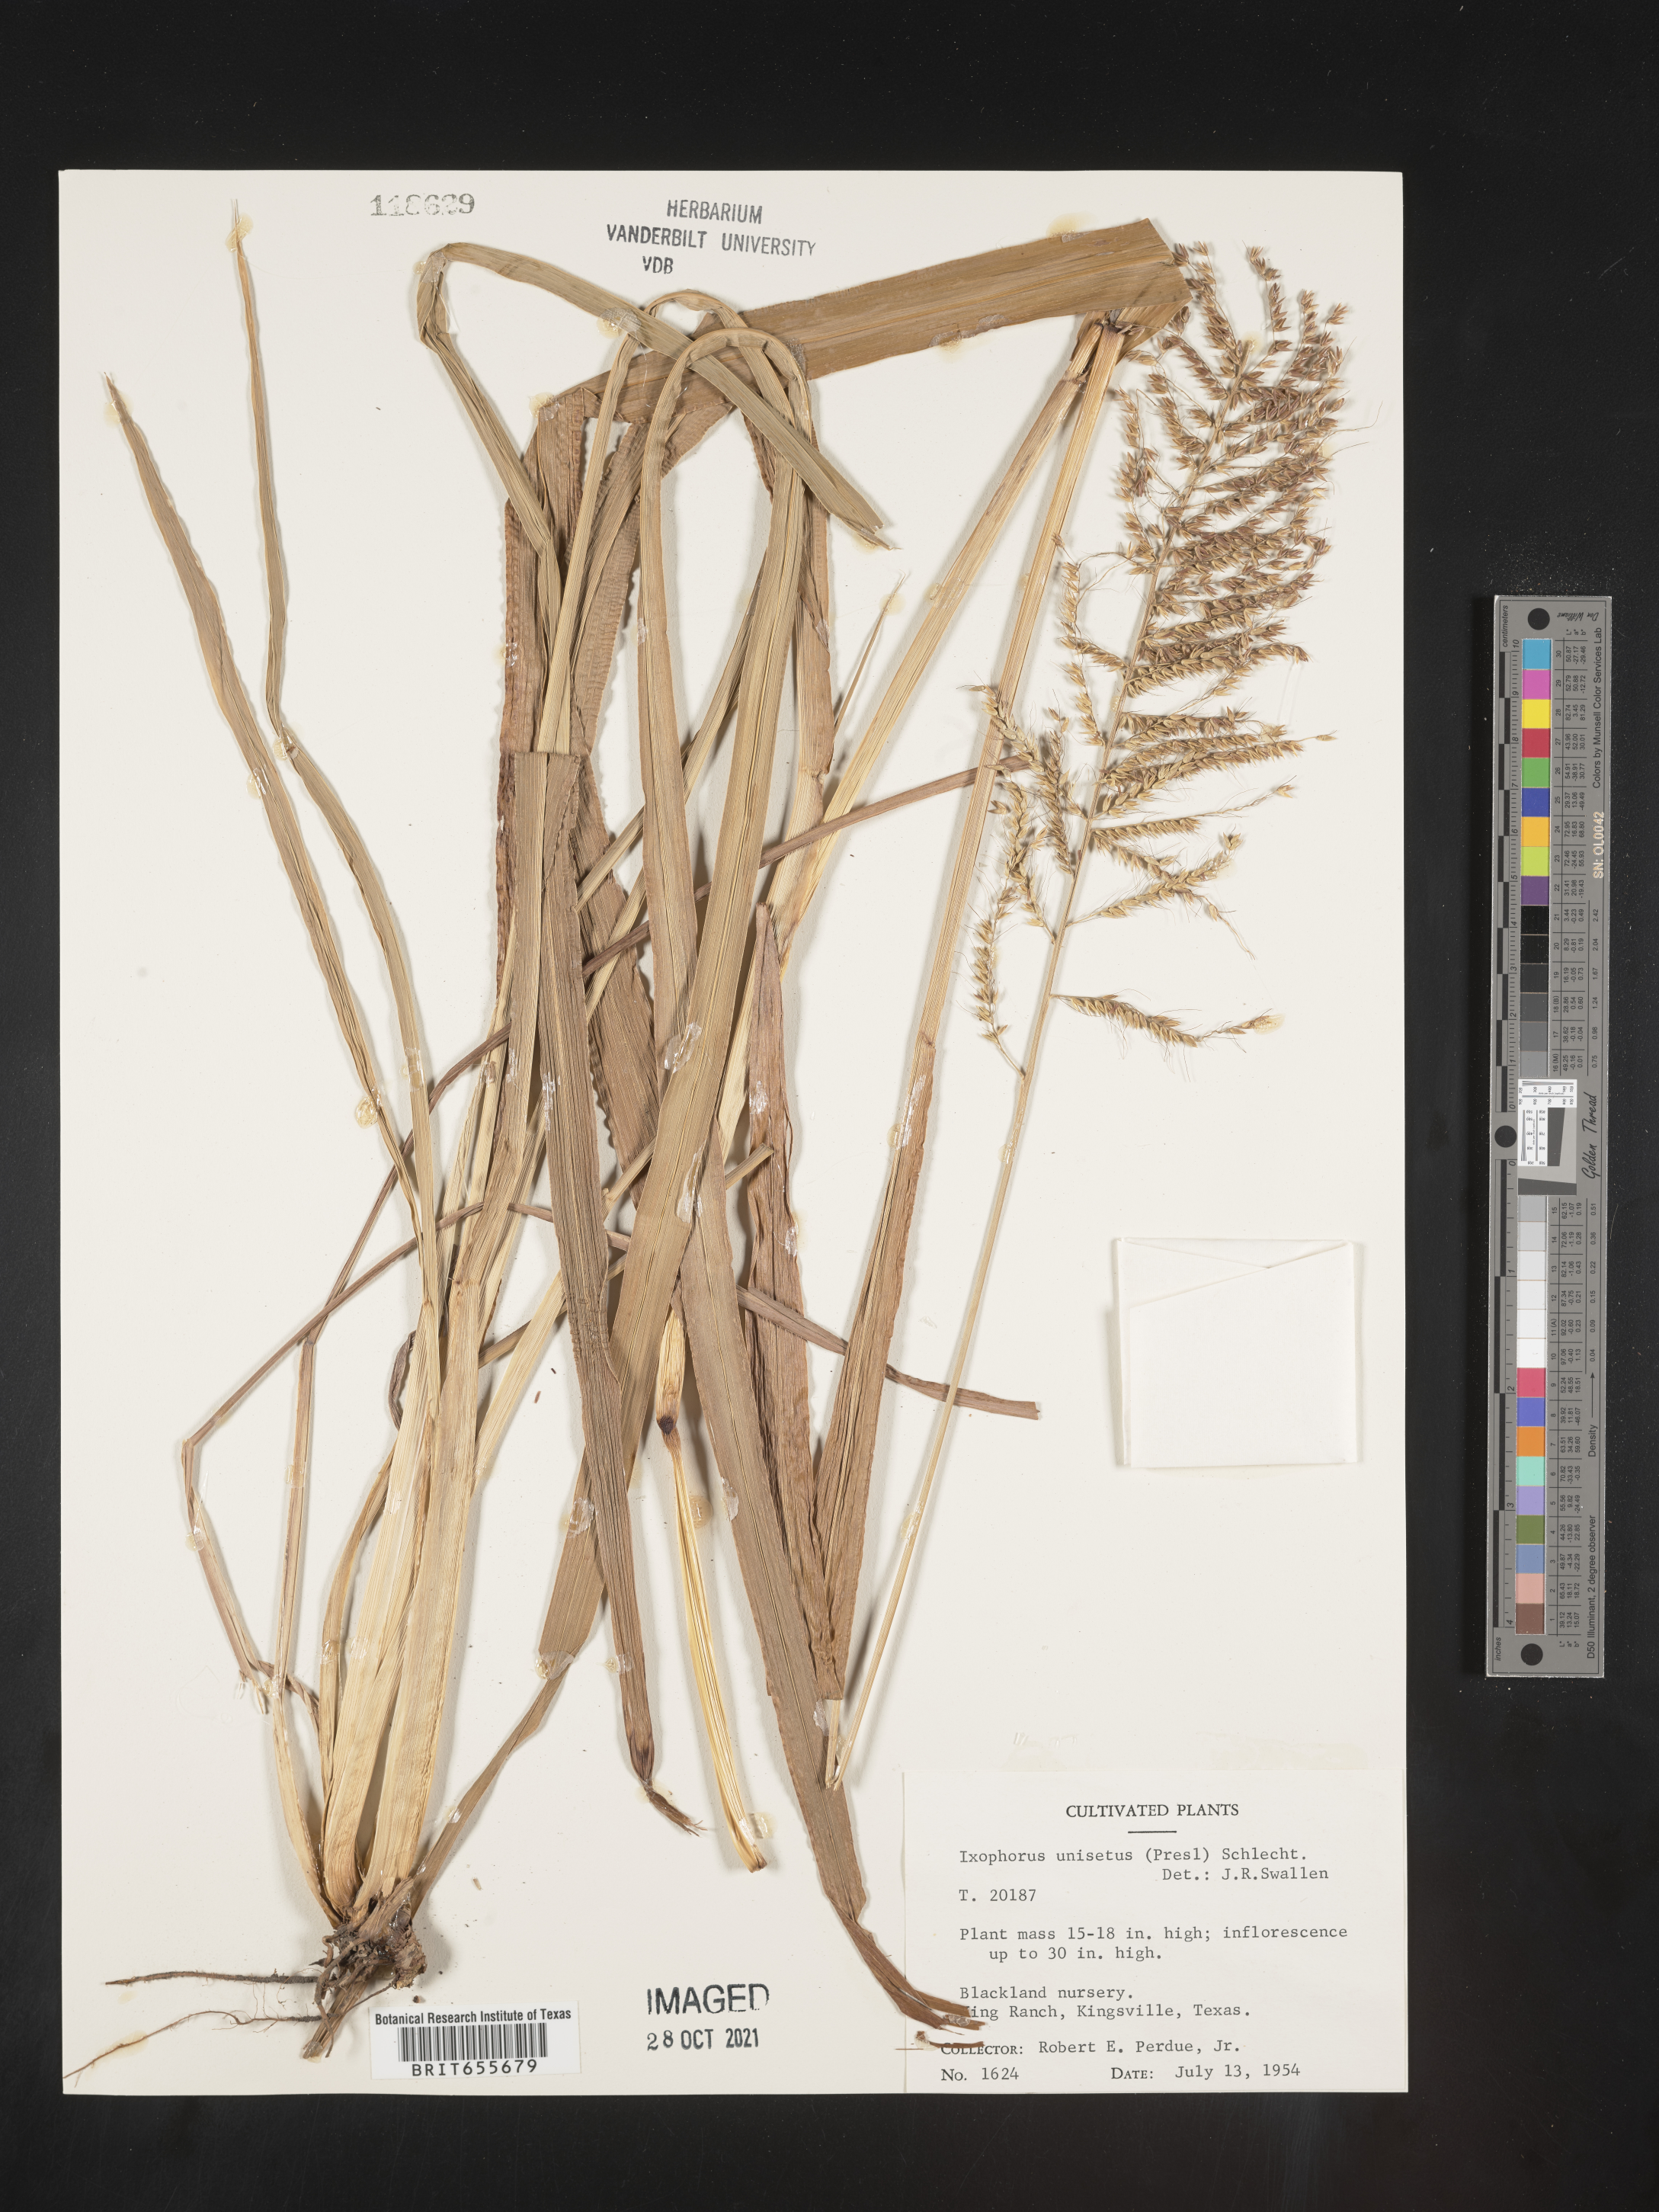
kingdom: Plantae
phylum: Tracheophyta
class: Liliopsida
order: Poales
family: Poaceae
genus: Ixophorus
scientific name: Ixophorus
